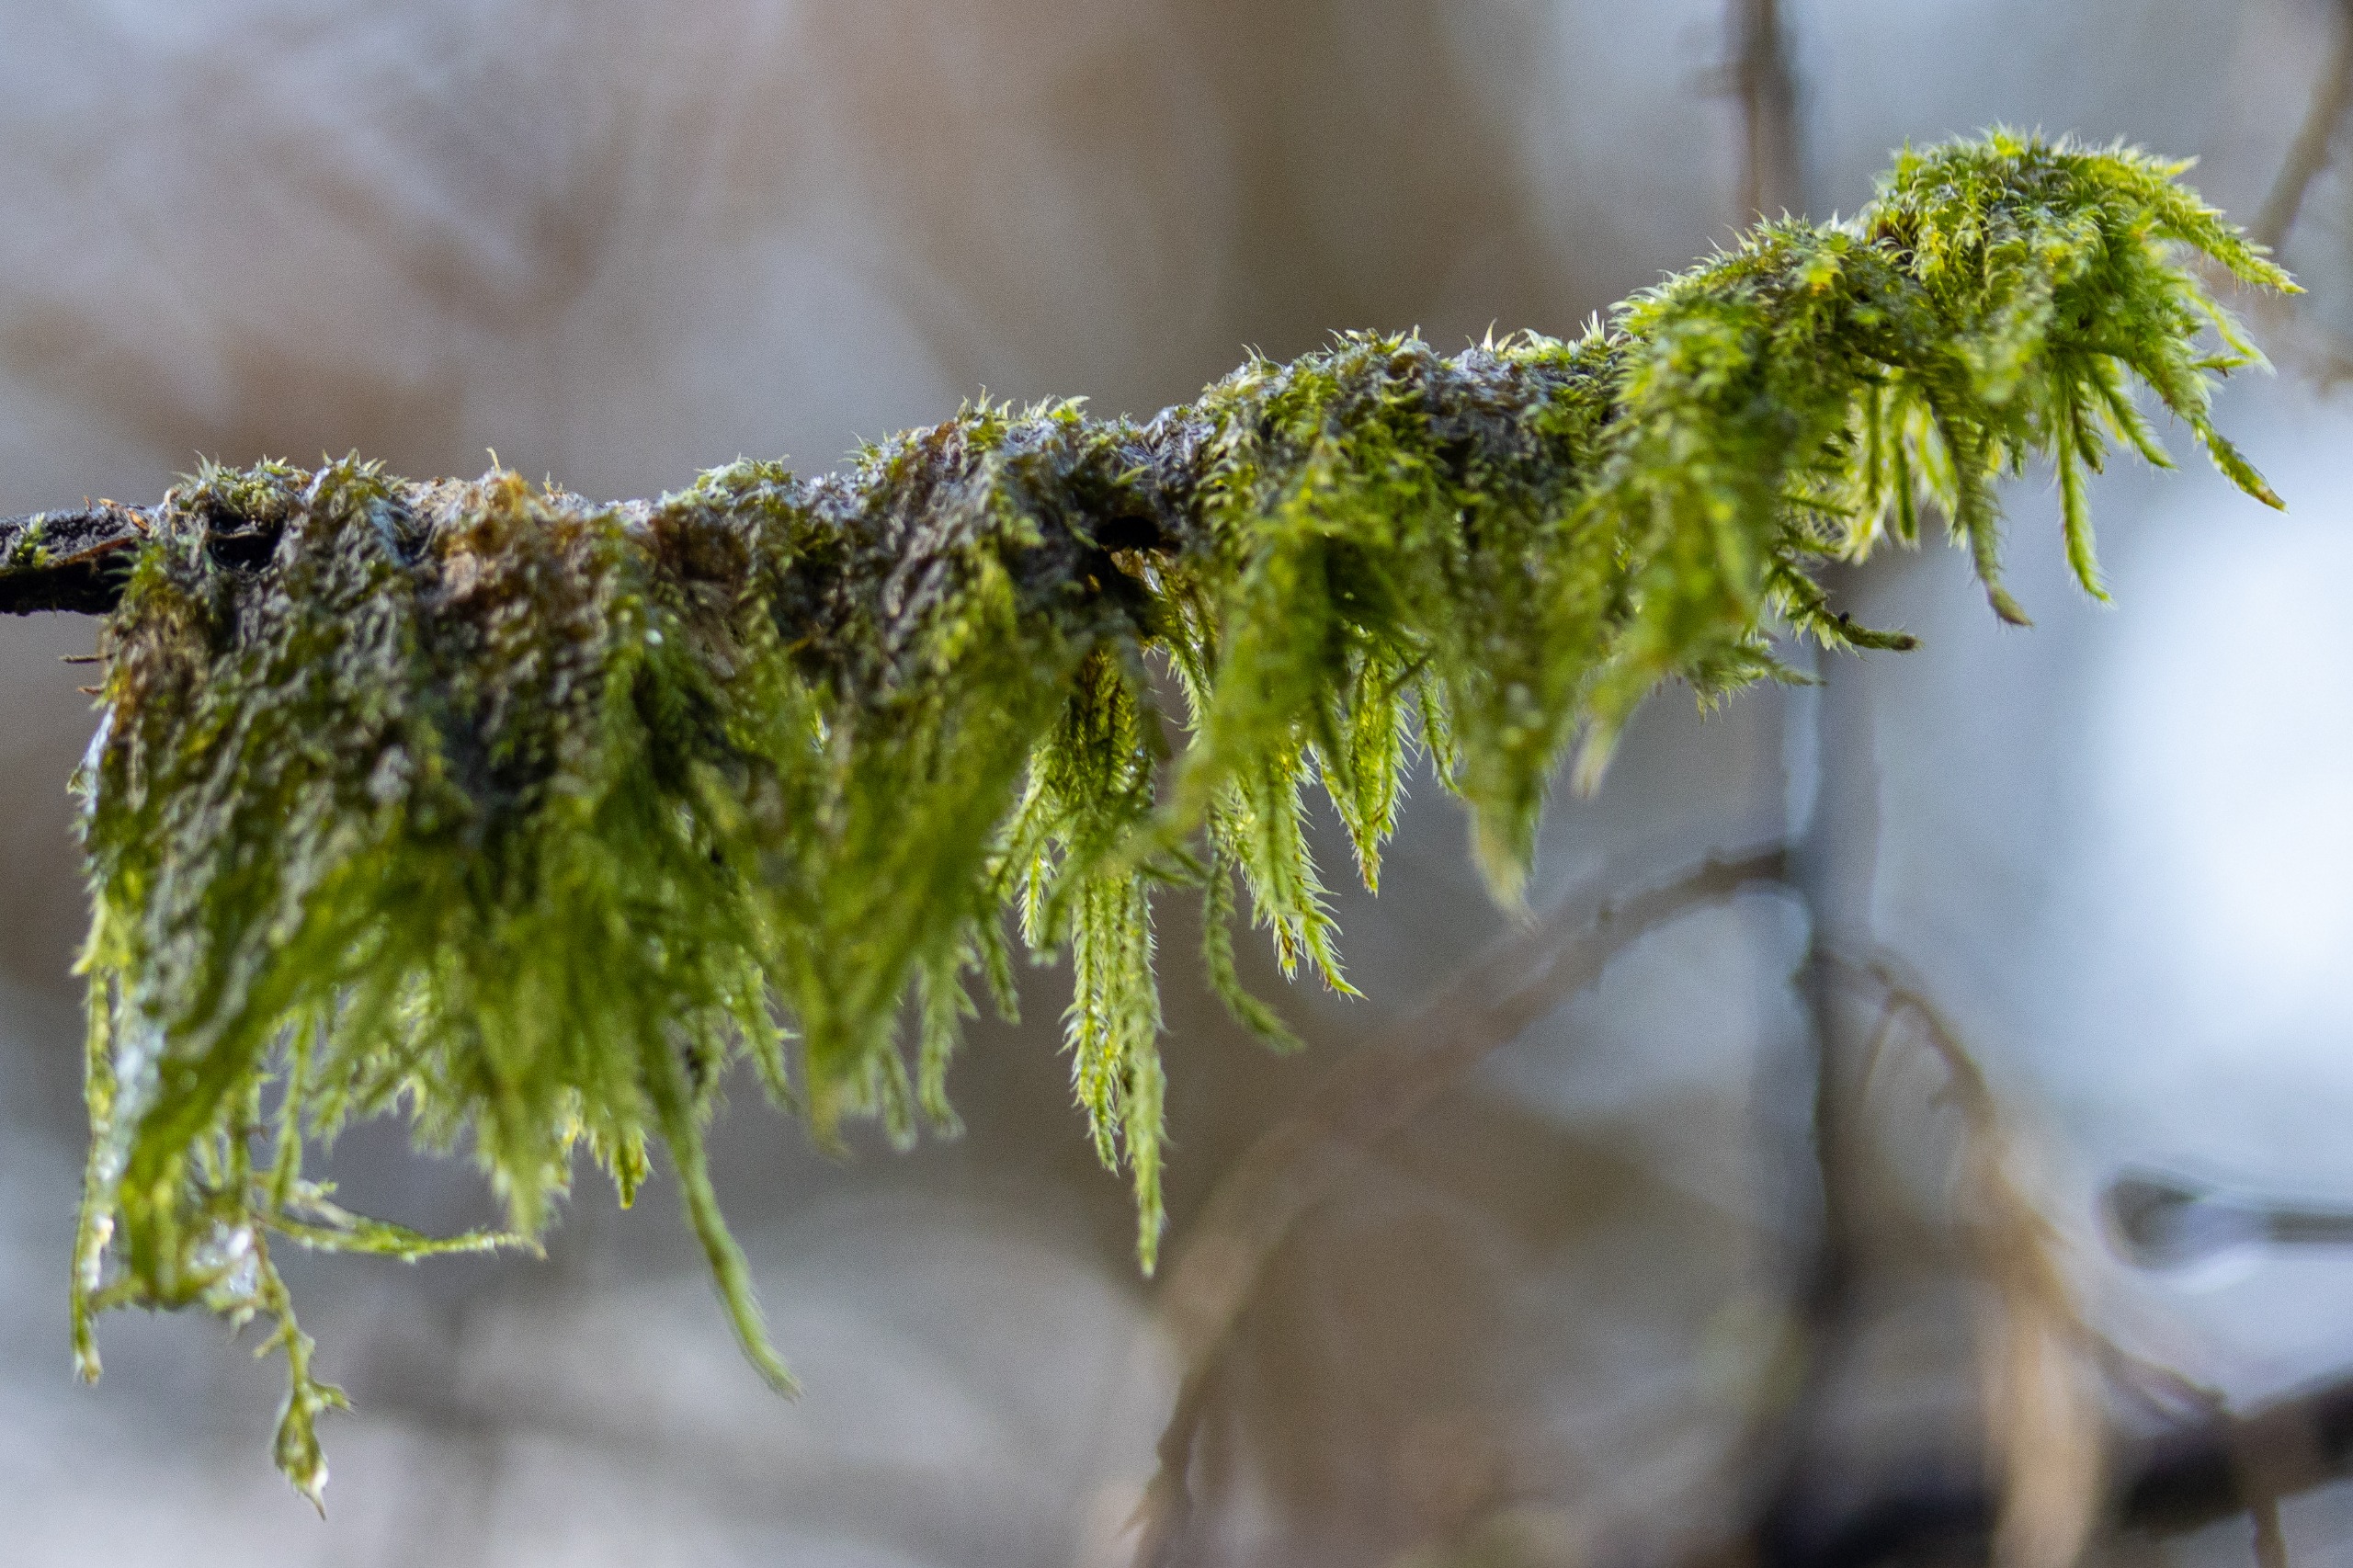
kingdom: Plantae
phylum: Bryophyta
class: Bryopsida
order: Hypnales
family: Hypnaceae
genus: Hypnum
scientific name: Hypnum
